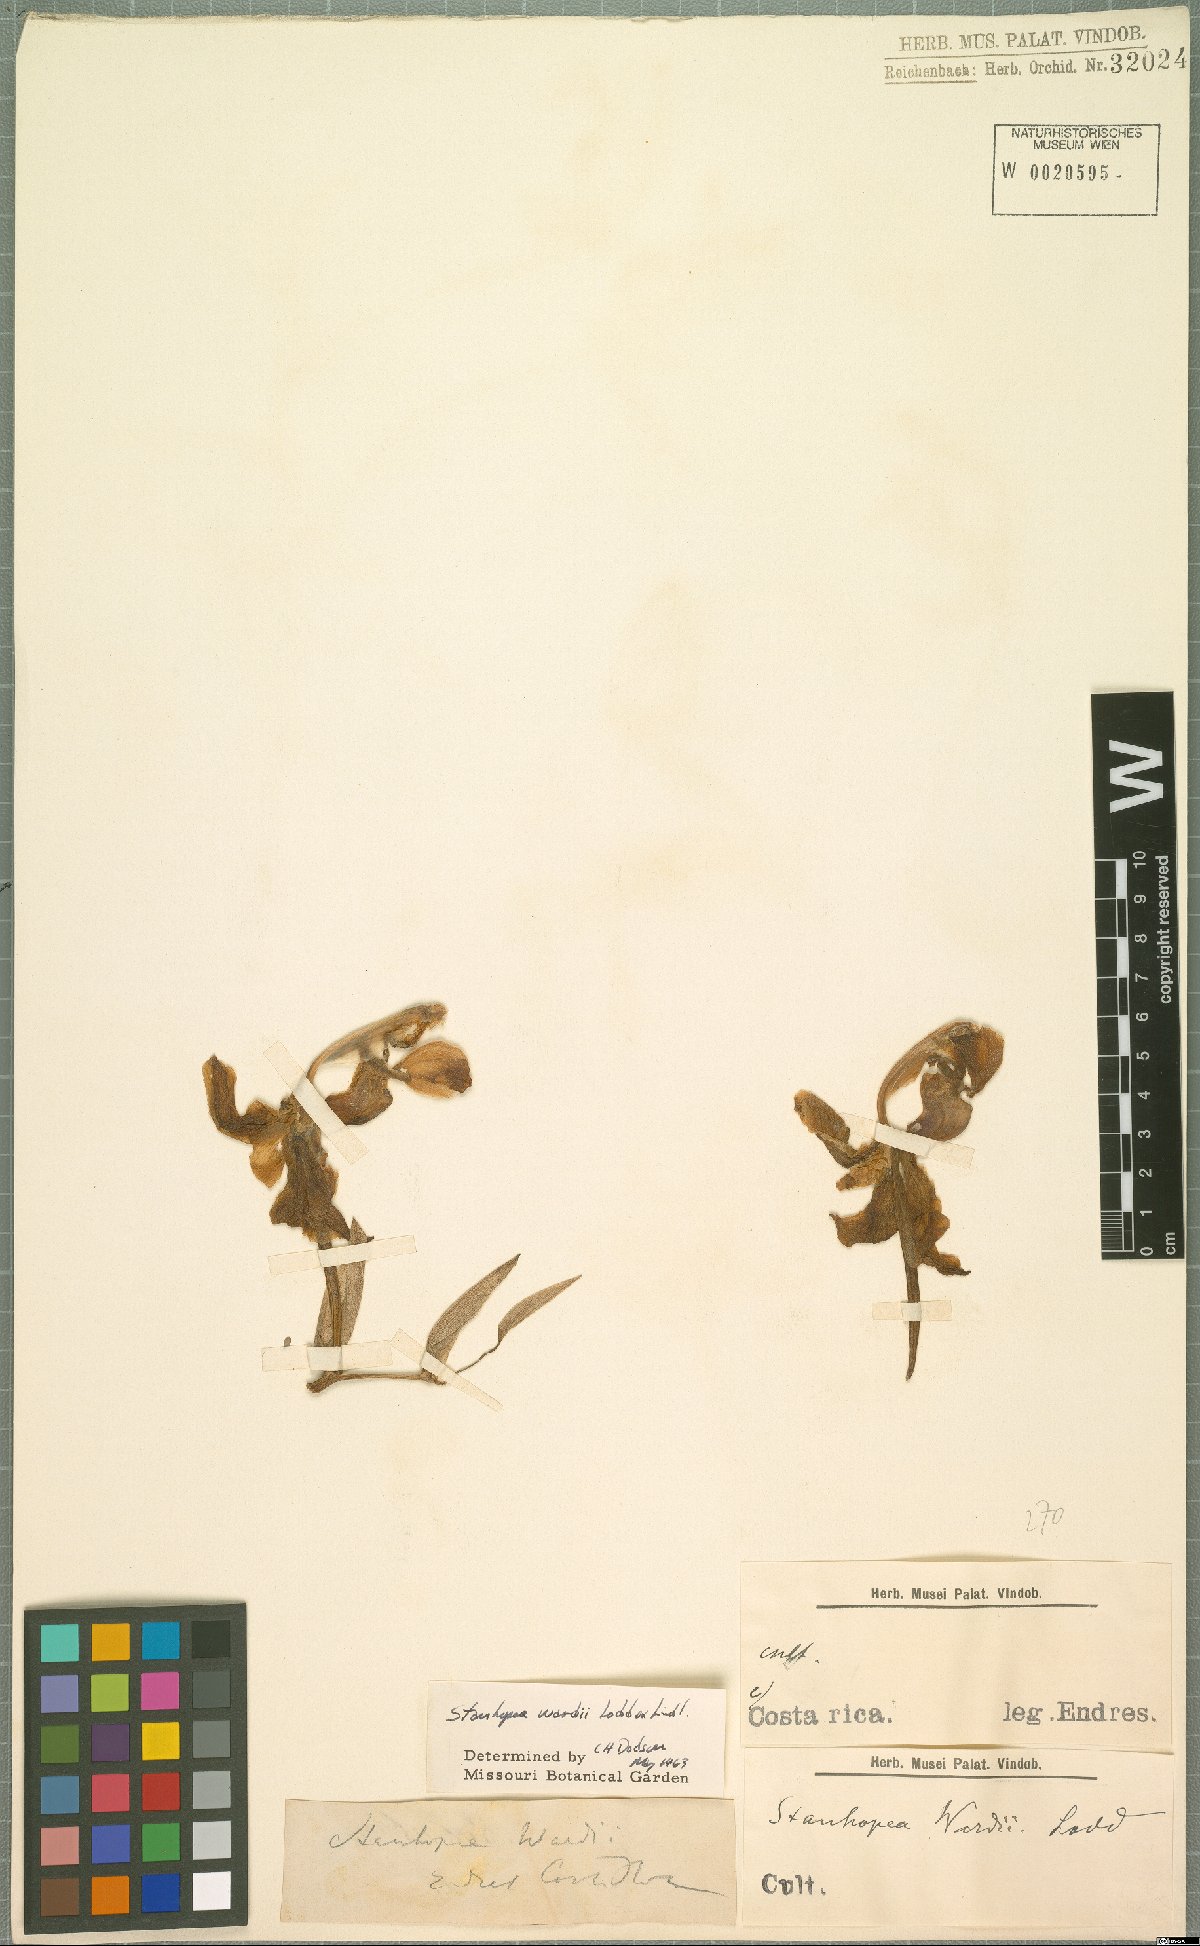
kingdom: Plantae
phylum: Tracheophyta
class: Liliopsida
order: Asparagales
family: Orchidaceae
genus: Stanhopea
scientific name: Stanhopea wardii
